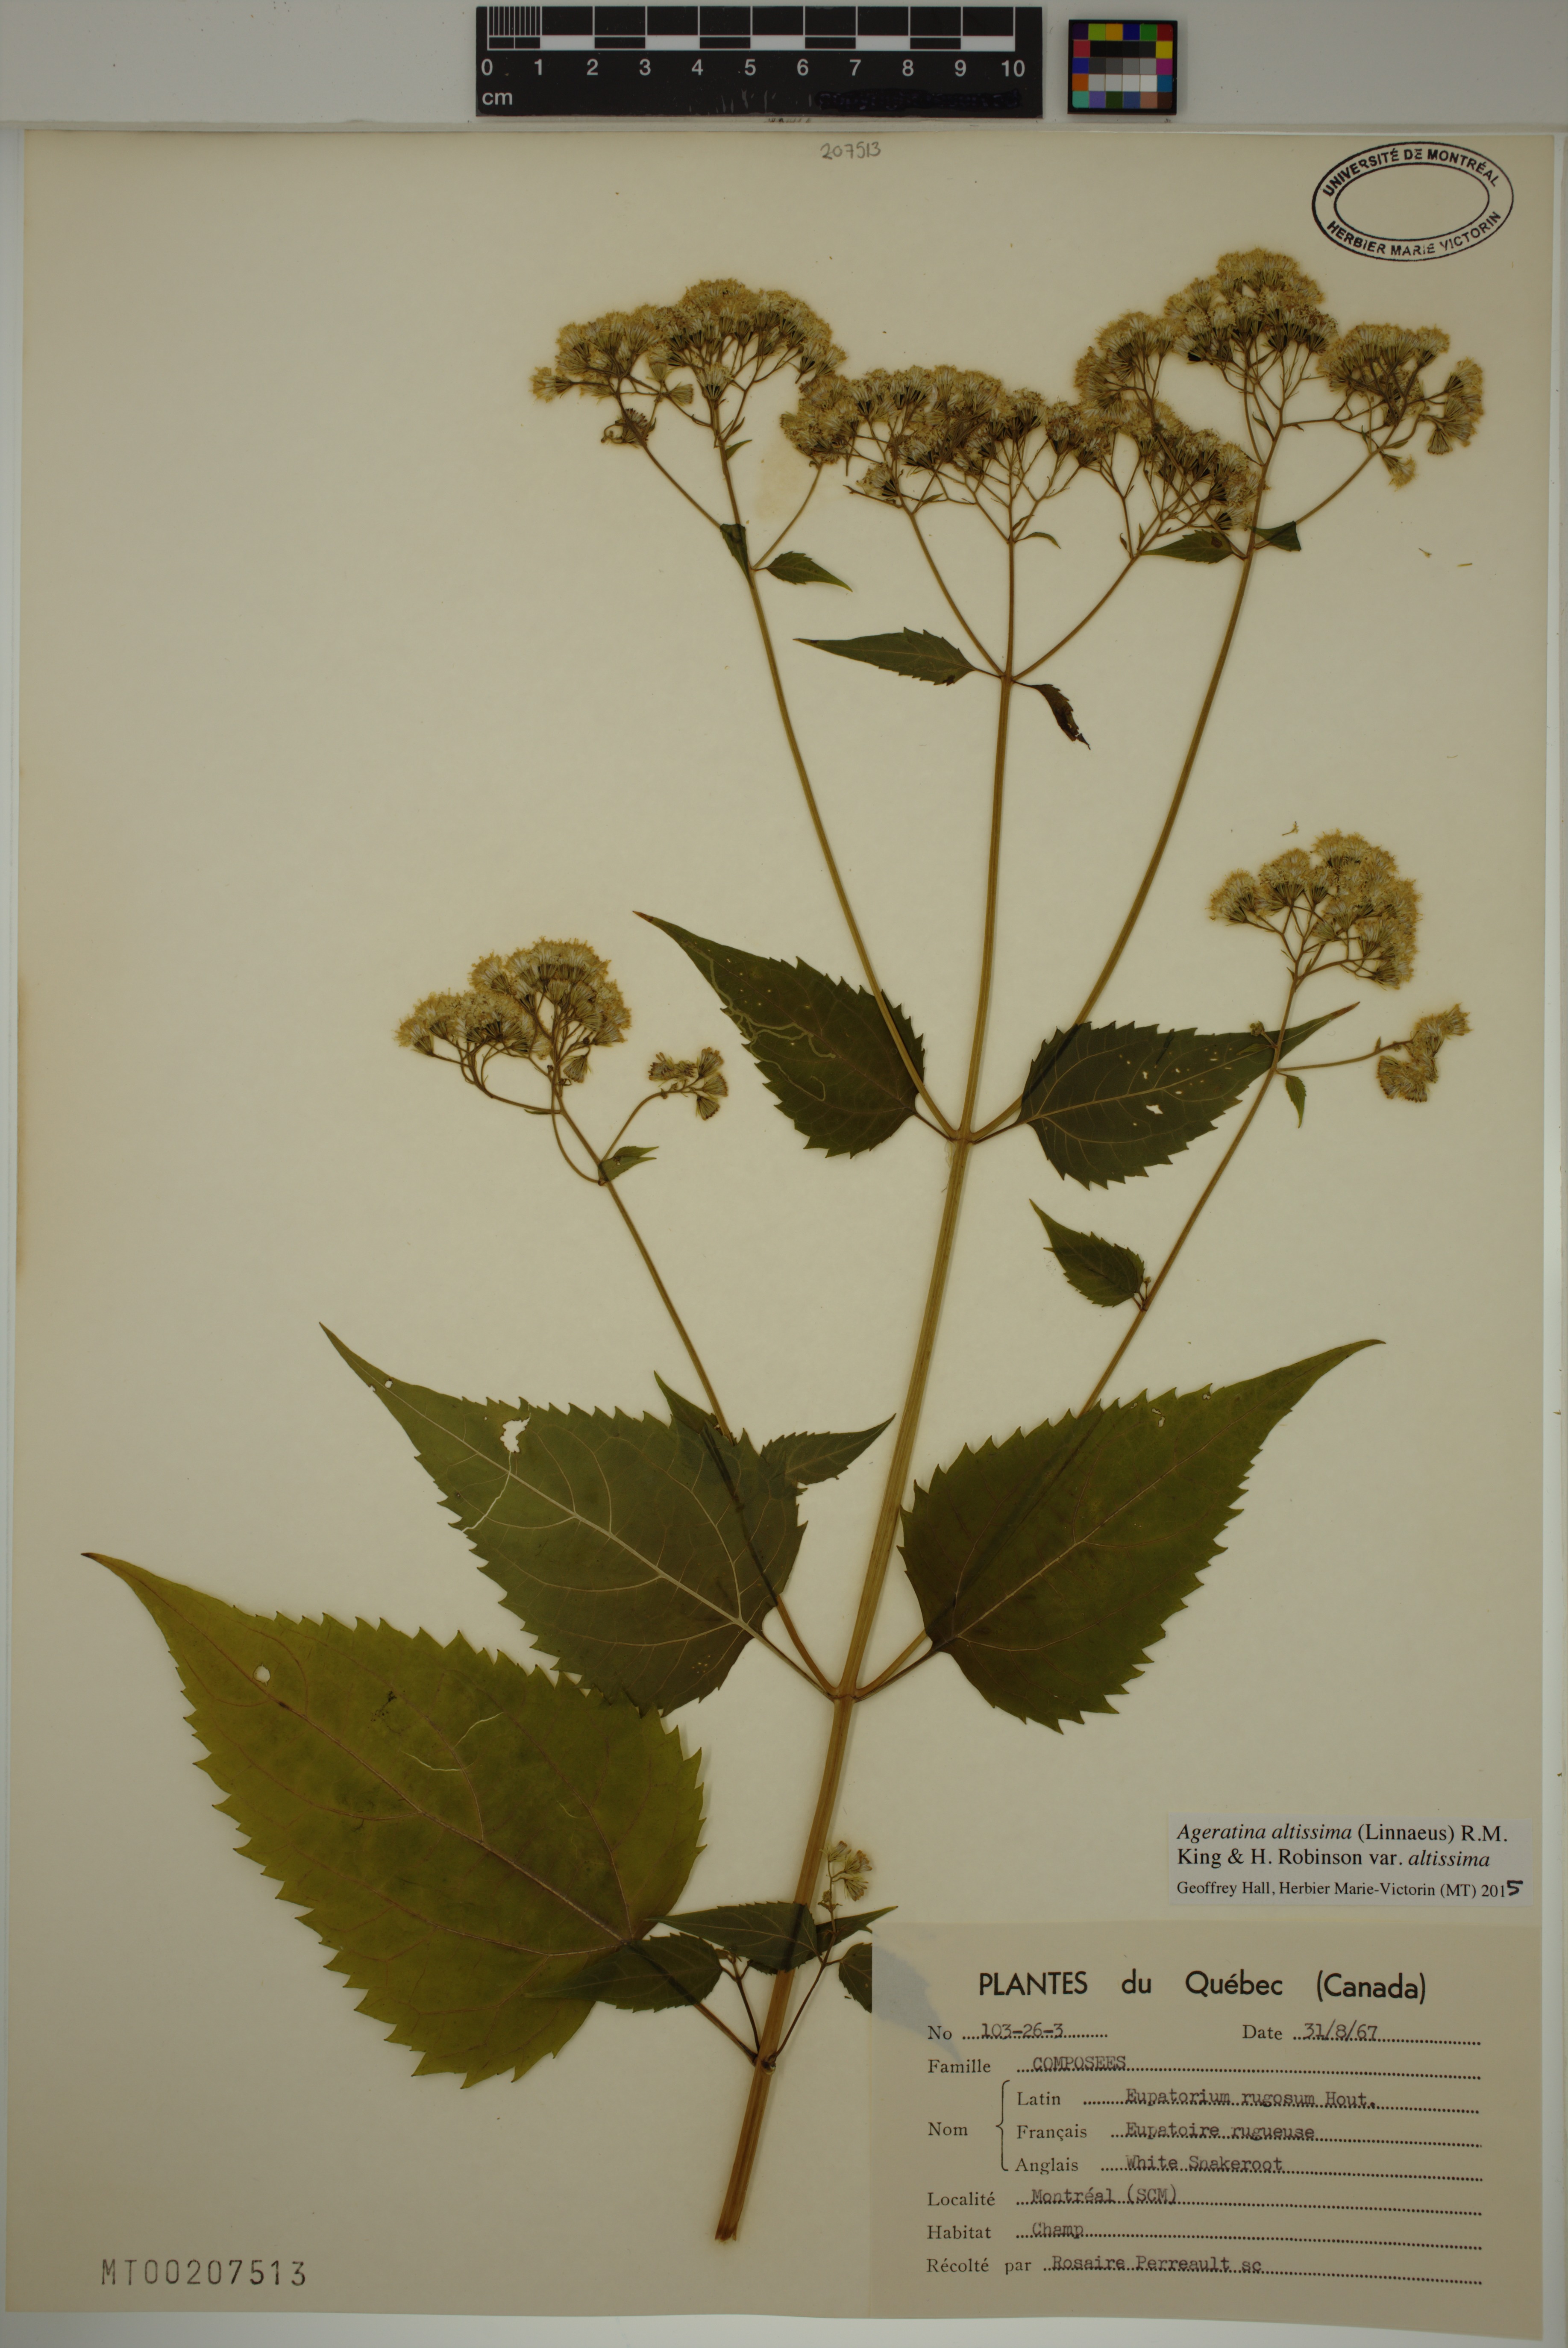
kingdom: Plantae
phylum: Tracheophyta
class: Magnoliopsida
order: Asterales
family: Asteraceae
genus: Ageratina
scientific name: Ageratina altissima
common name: White snakeroot
